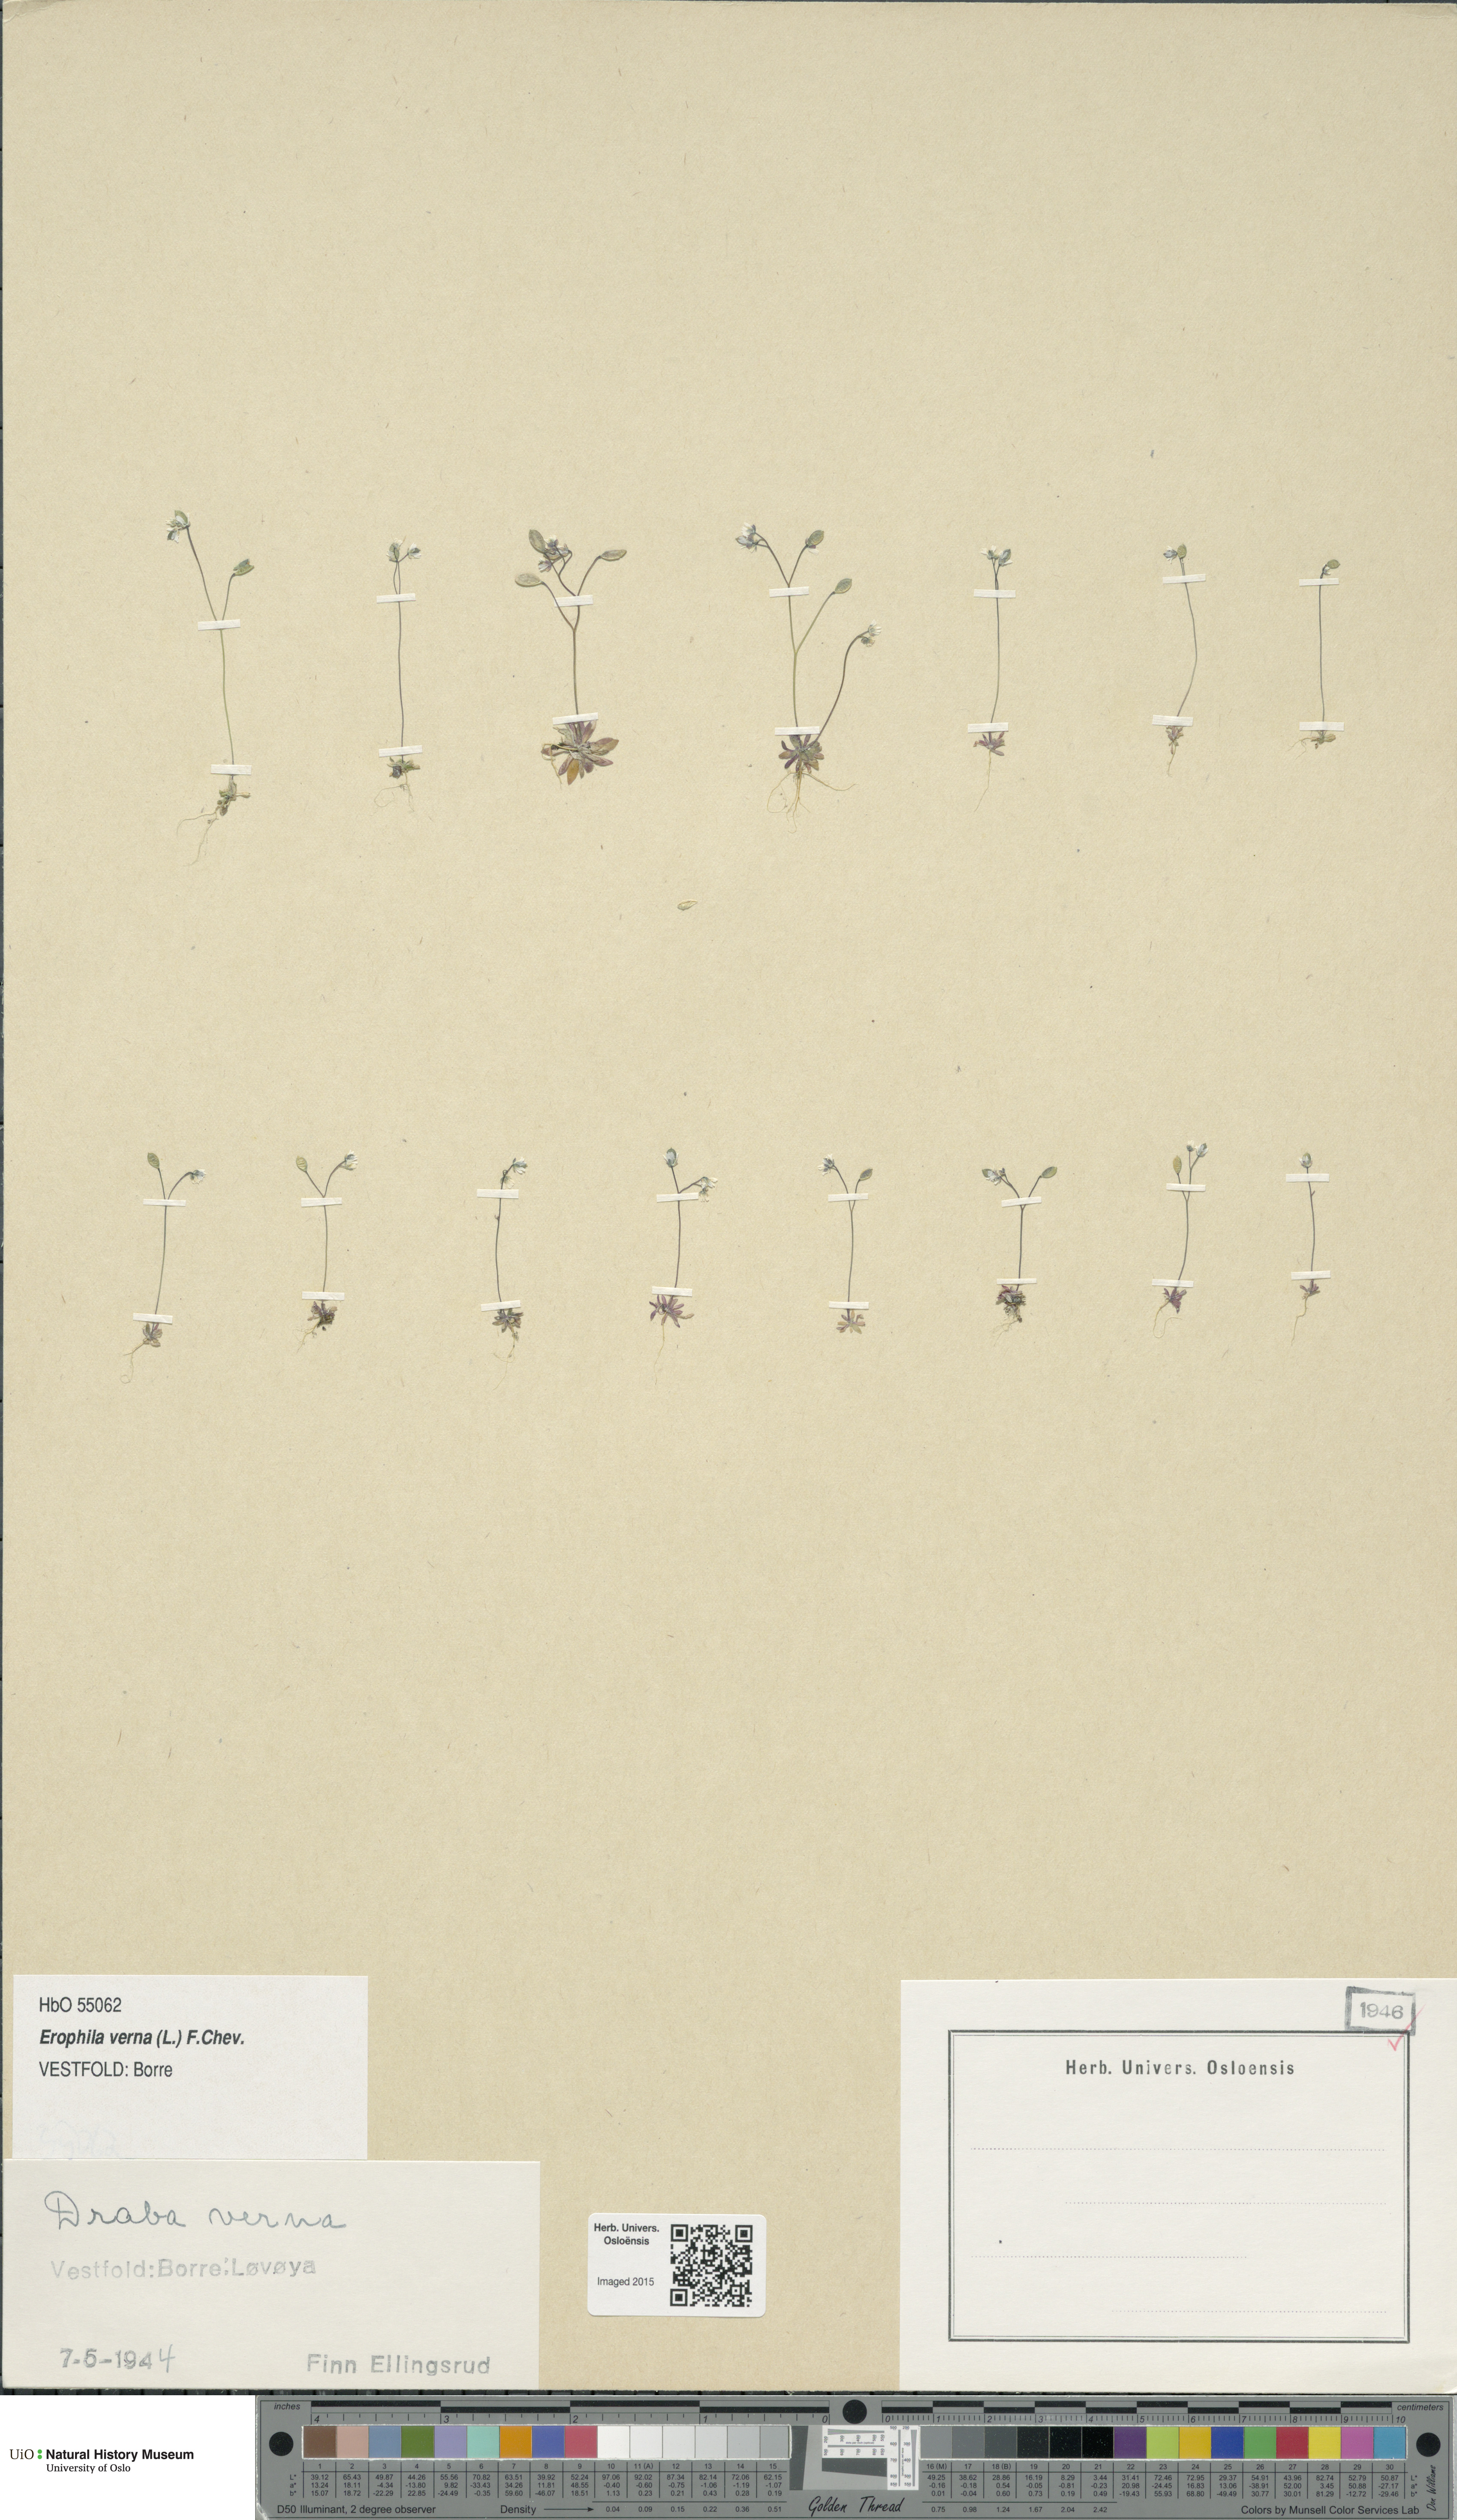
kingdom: Plantae
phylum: Tracheophyta
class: Magnoliopsida
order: Brassicales
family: Brassicaceae
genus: Draba
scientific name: Draba verna
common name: Spring draba
